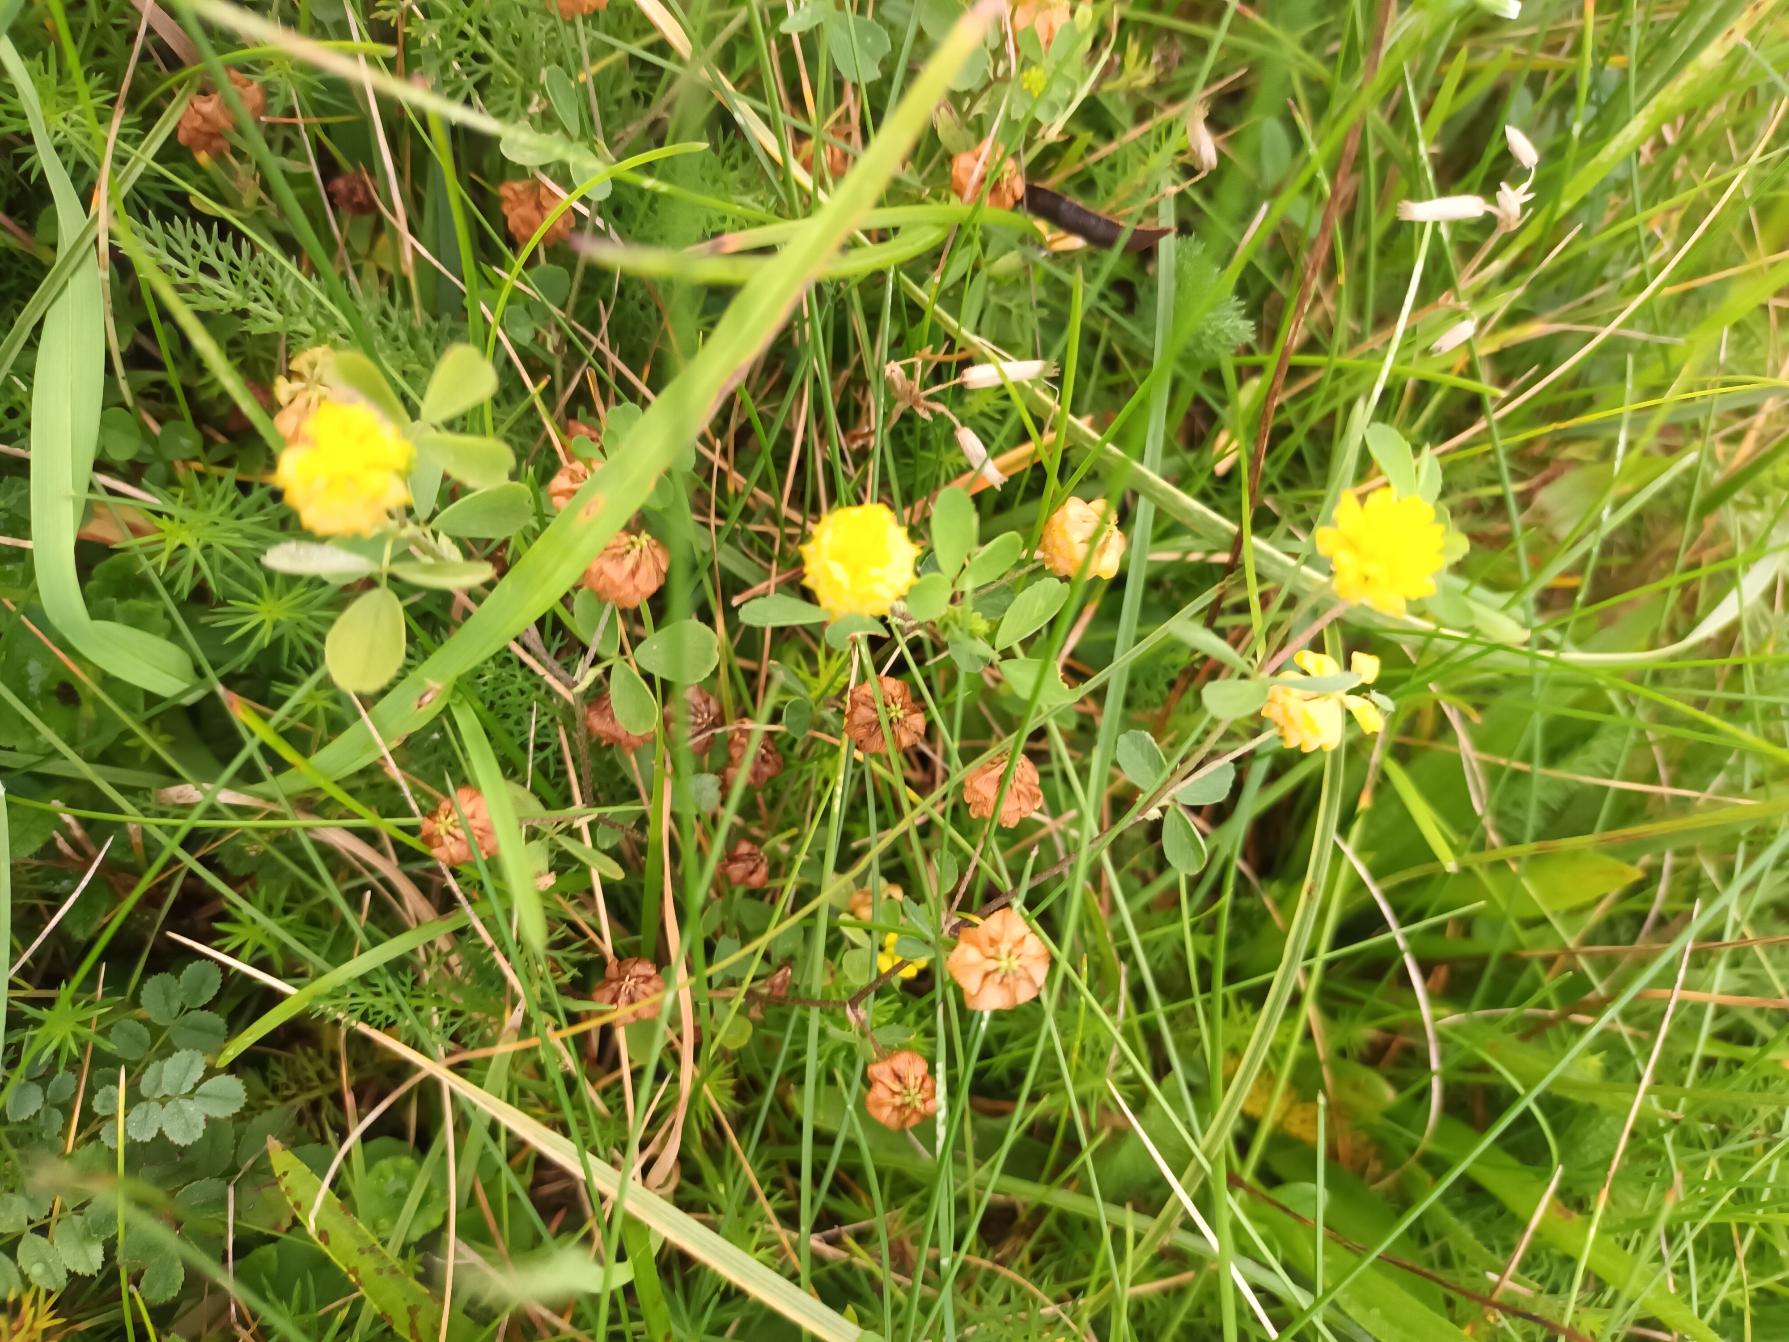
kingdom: Plantae
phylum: Tracheophyta
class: Magnoliopsida
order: Fabales
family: Fabaceae
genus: Trifolium
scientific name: Trifolium campestre
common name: Gul kløver
